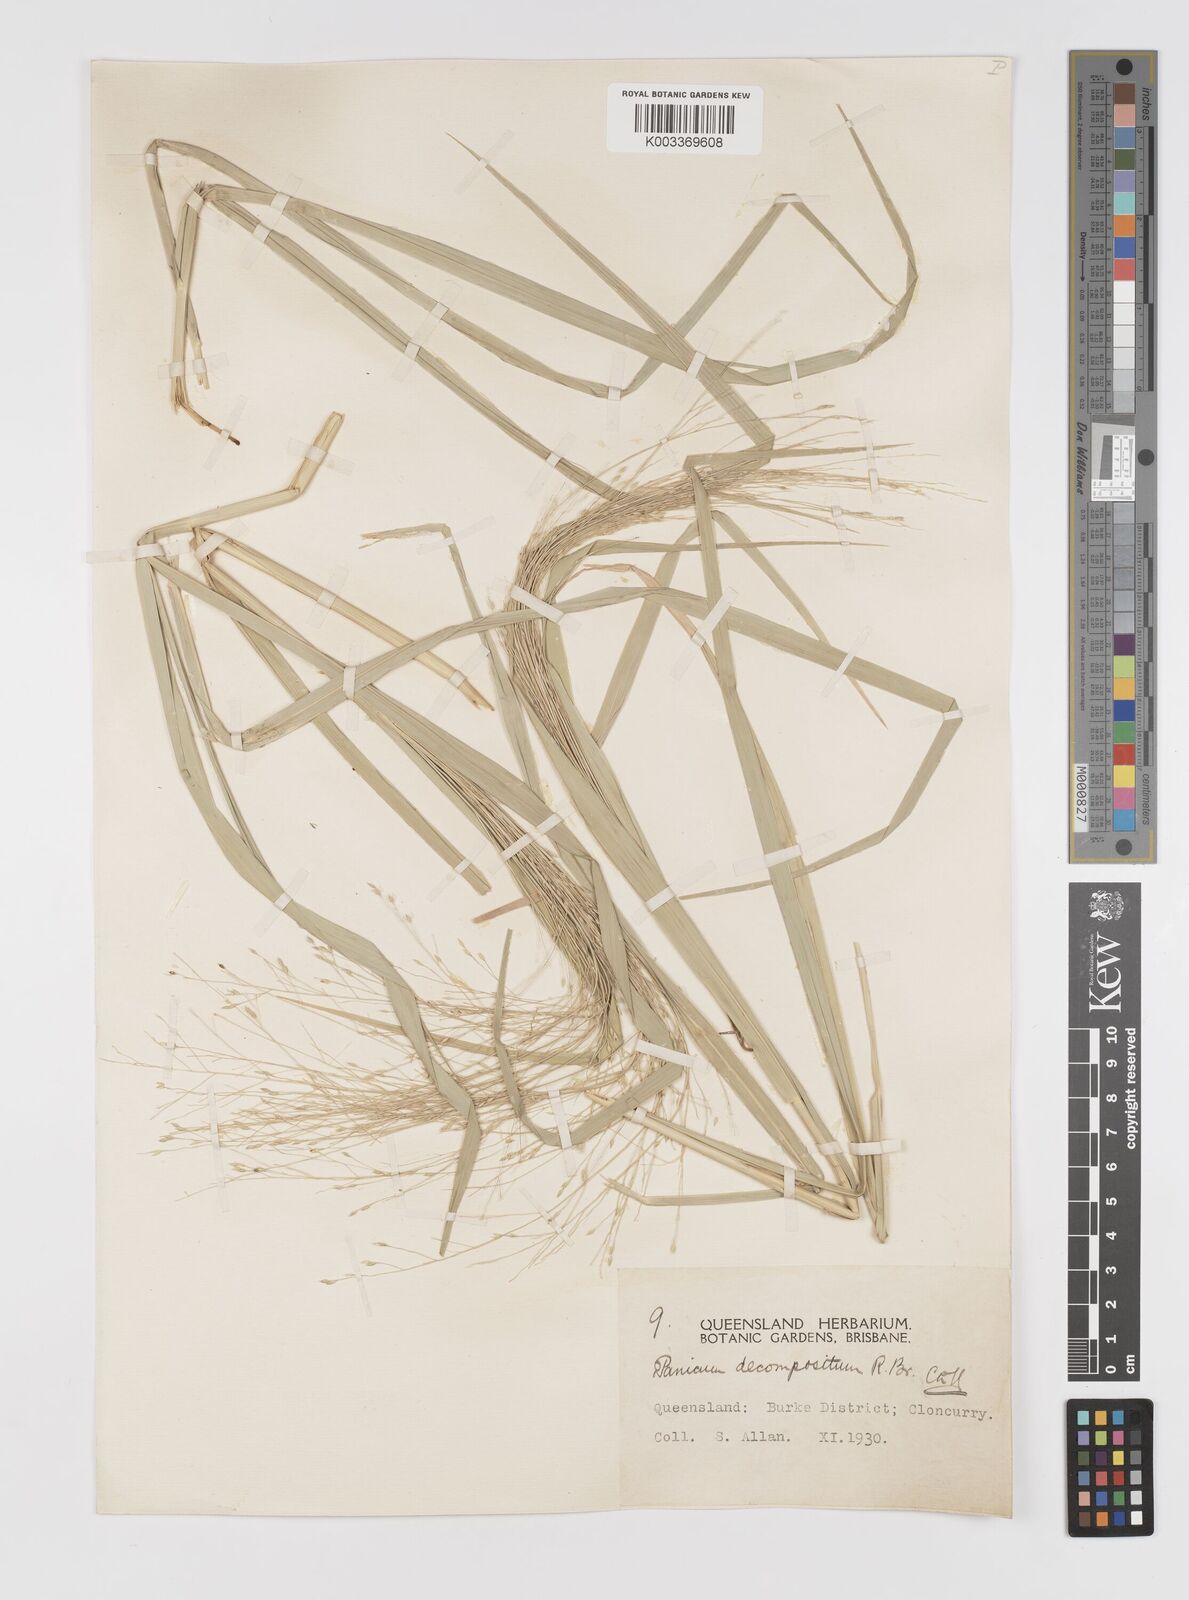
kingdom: Plantae
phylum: Tracheophyta
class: Liliopsida
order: Poales
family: Poaceae
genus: Panicum
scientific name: Panicum decompositum
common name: Australian millet
